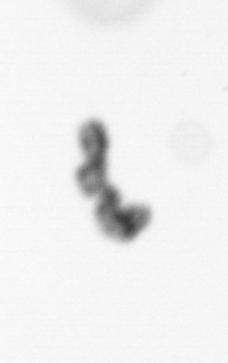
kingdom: Chromista
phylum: Ochrophyta
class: Bacillariophyceae
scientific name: Bacillariophyceae
